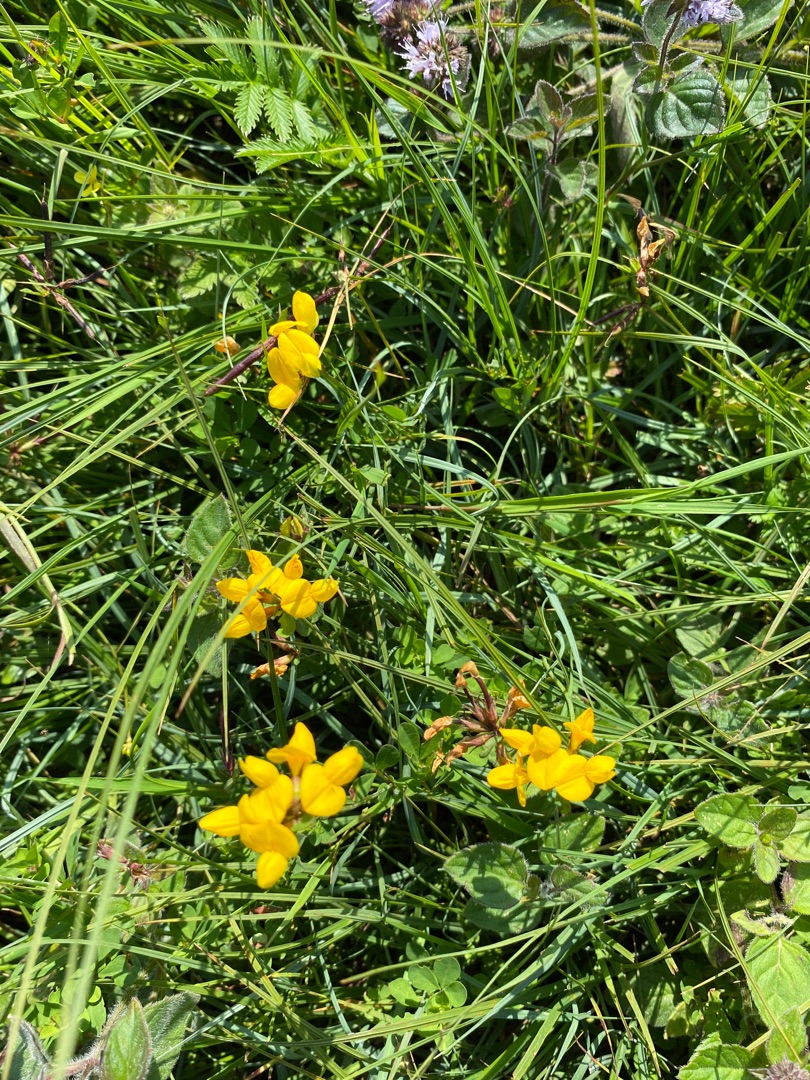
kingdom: Plantae
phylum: Tracheophyta
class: Magnoliopsida
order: Fabales
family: Fabaceae
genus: Lotus
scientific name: Lotus
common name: Kællingetandslægten
